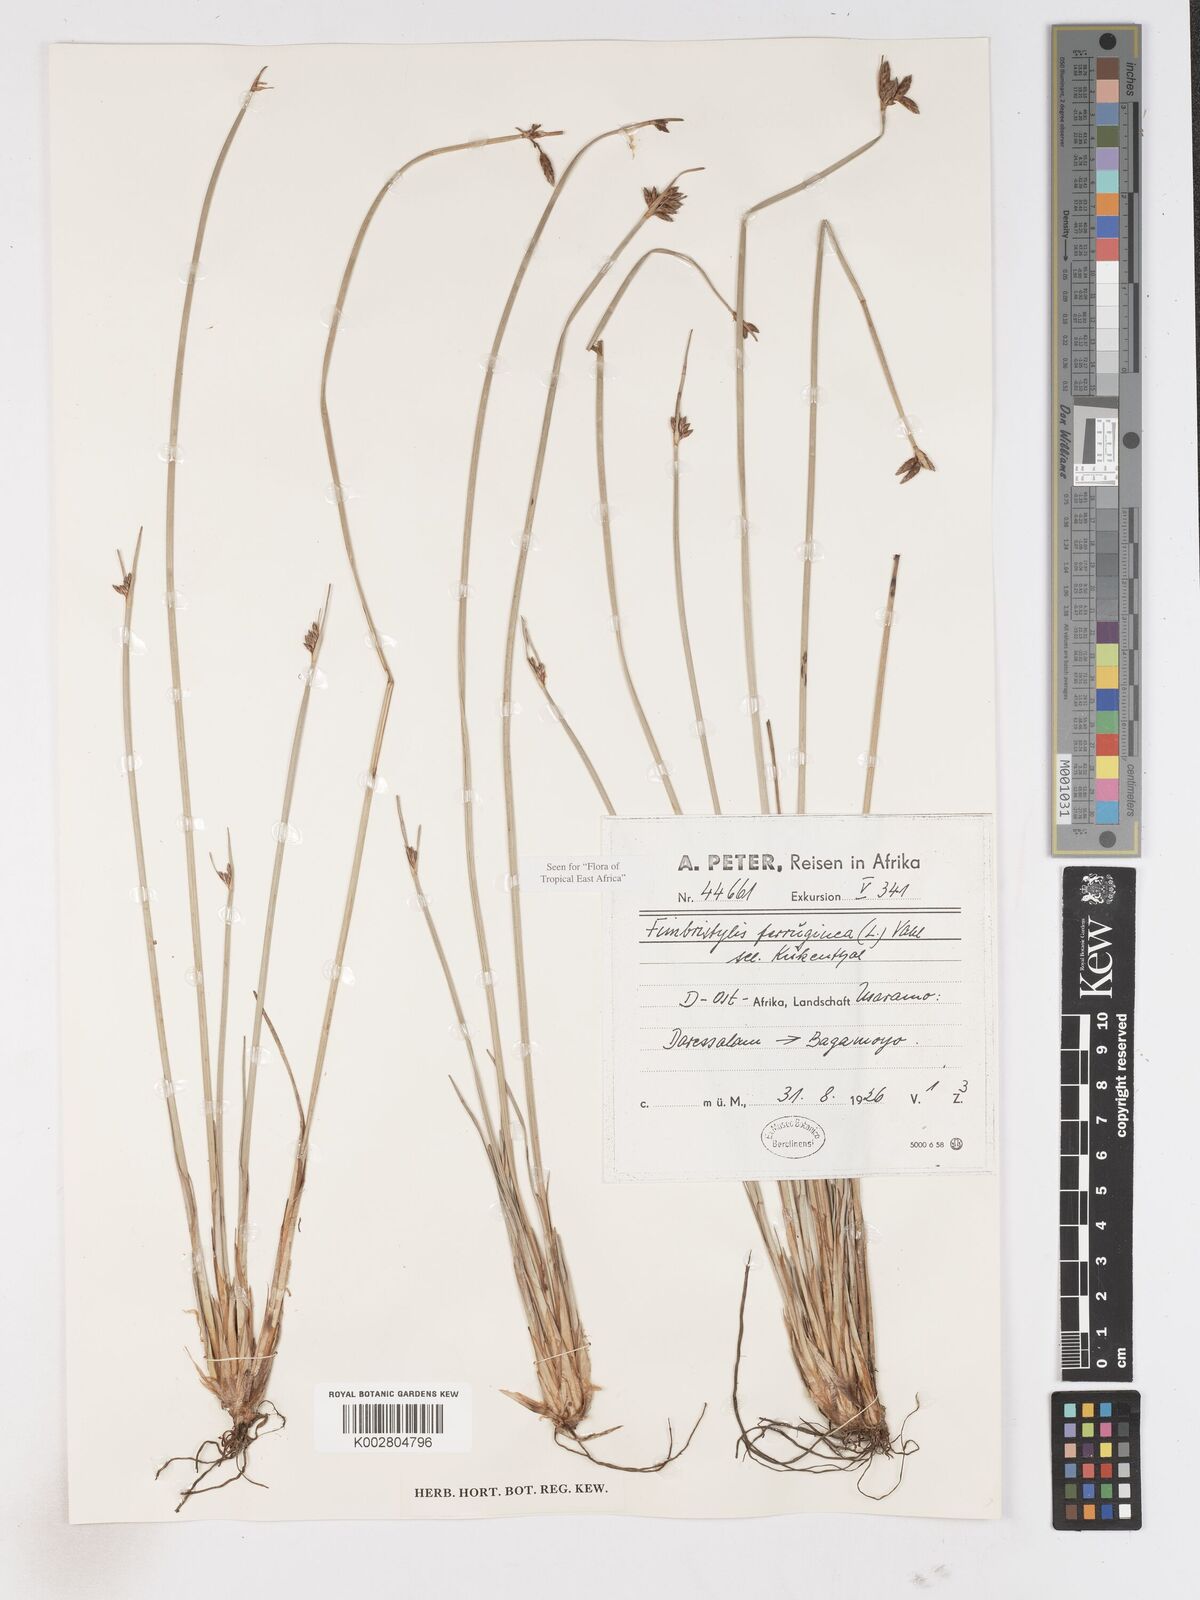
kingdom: Plantae
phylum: Tracheophyta
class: Liliopsida
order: Poales
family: Cyperaceae
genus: Fimbristylis
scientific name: Fimbristylis ferruginea
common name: West indian fimbry
